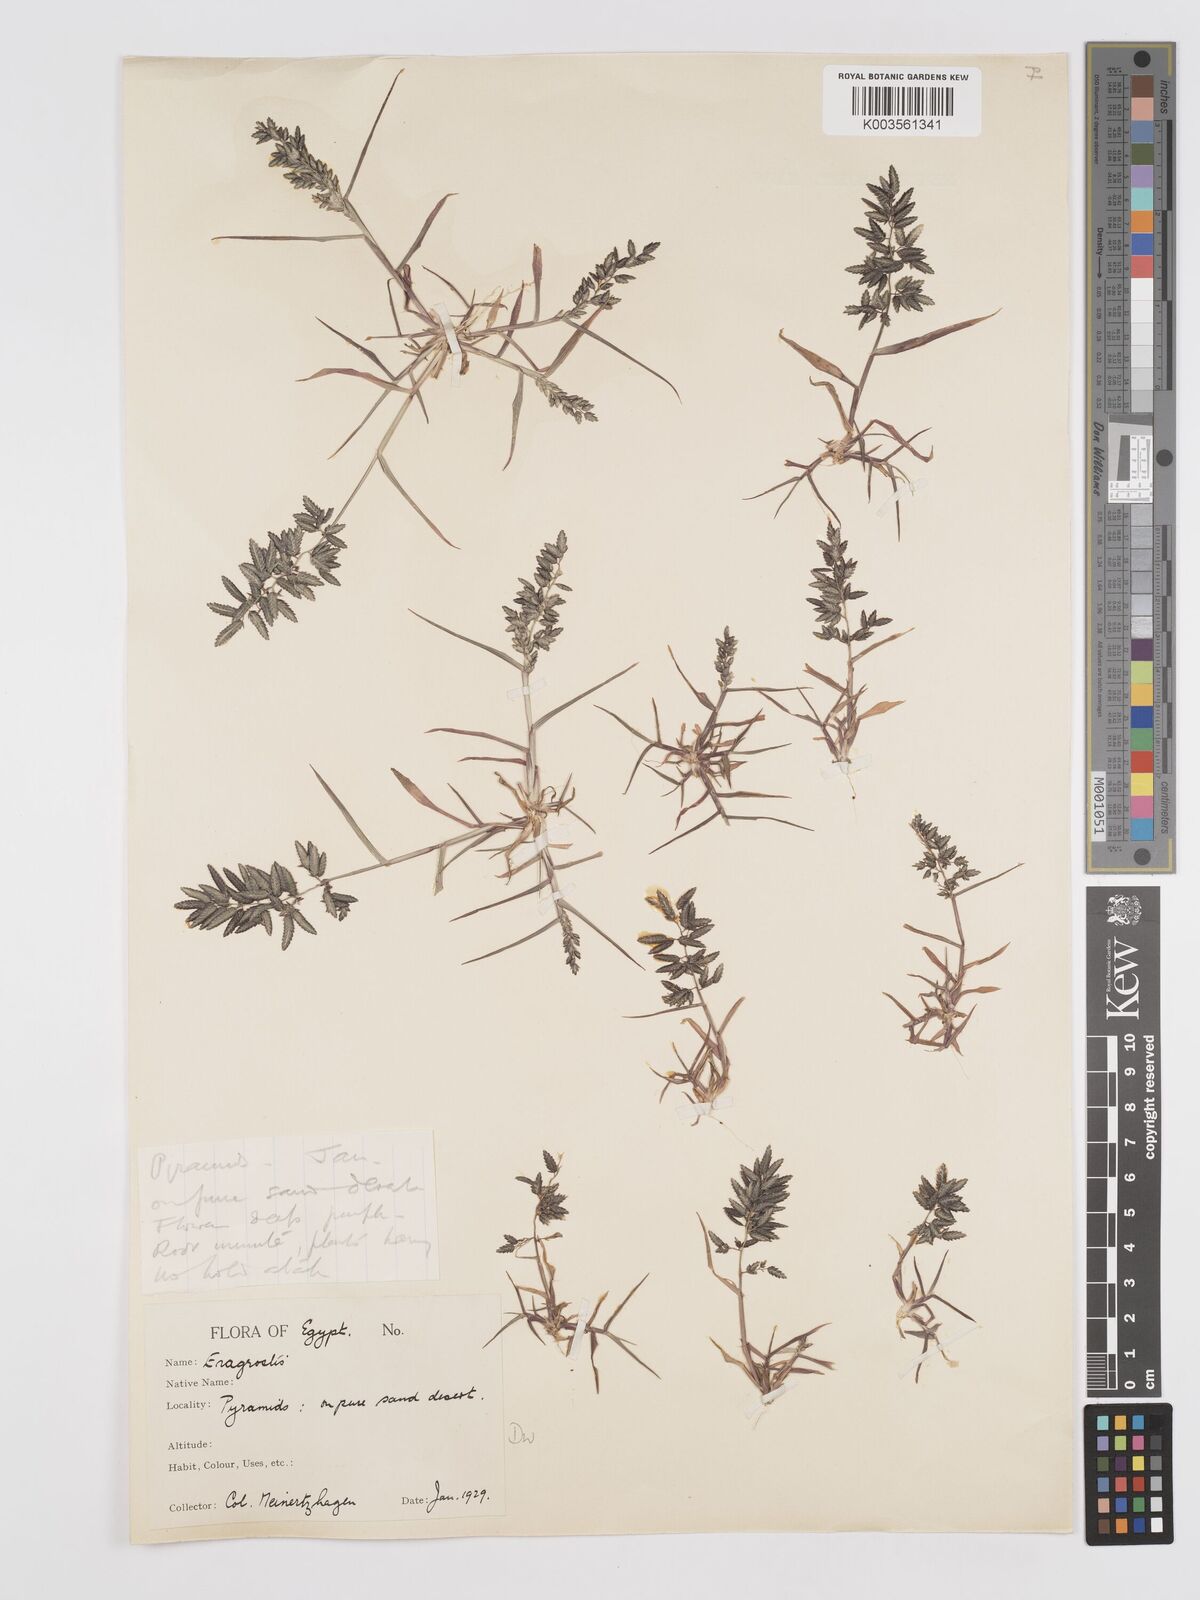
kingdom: Plantae
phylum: Tracheophyta
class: Liliopsida
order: Poales
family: Poaceae
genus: Eragrostis
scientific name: Eragrostis cilianensis
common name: Stinkgrass
